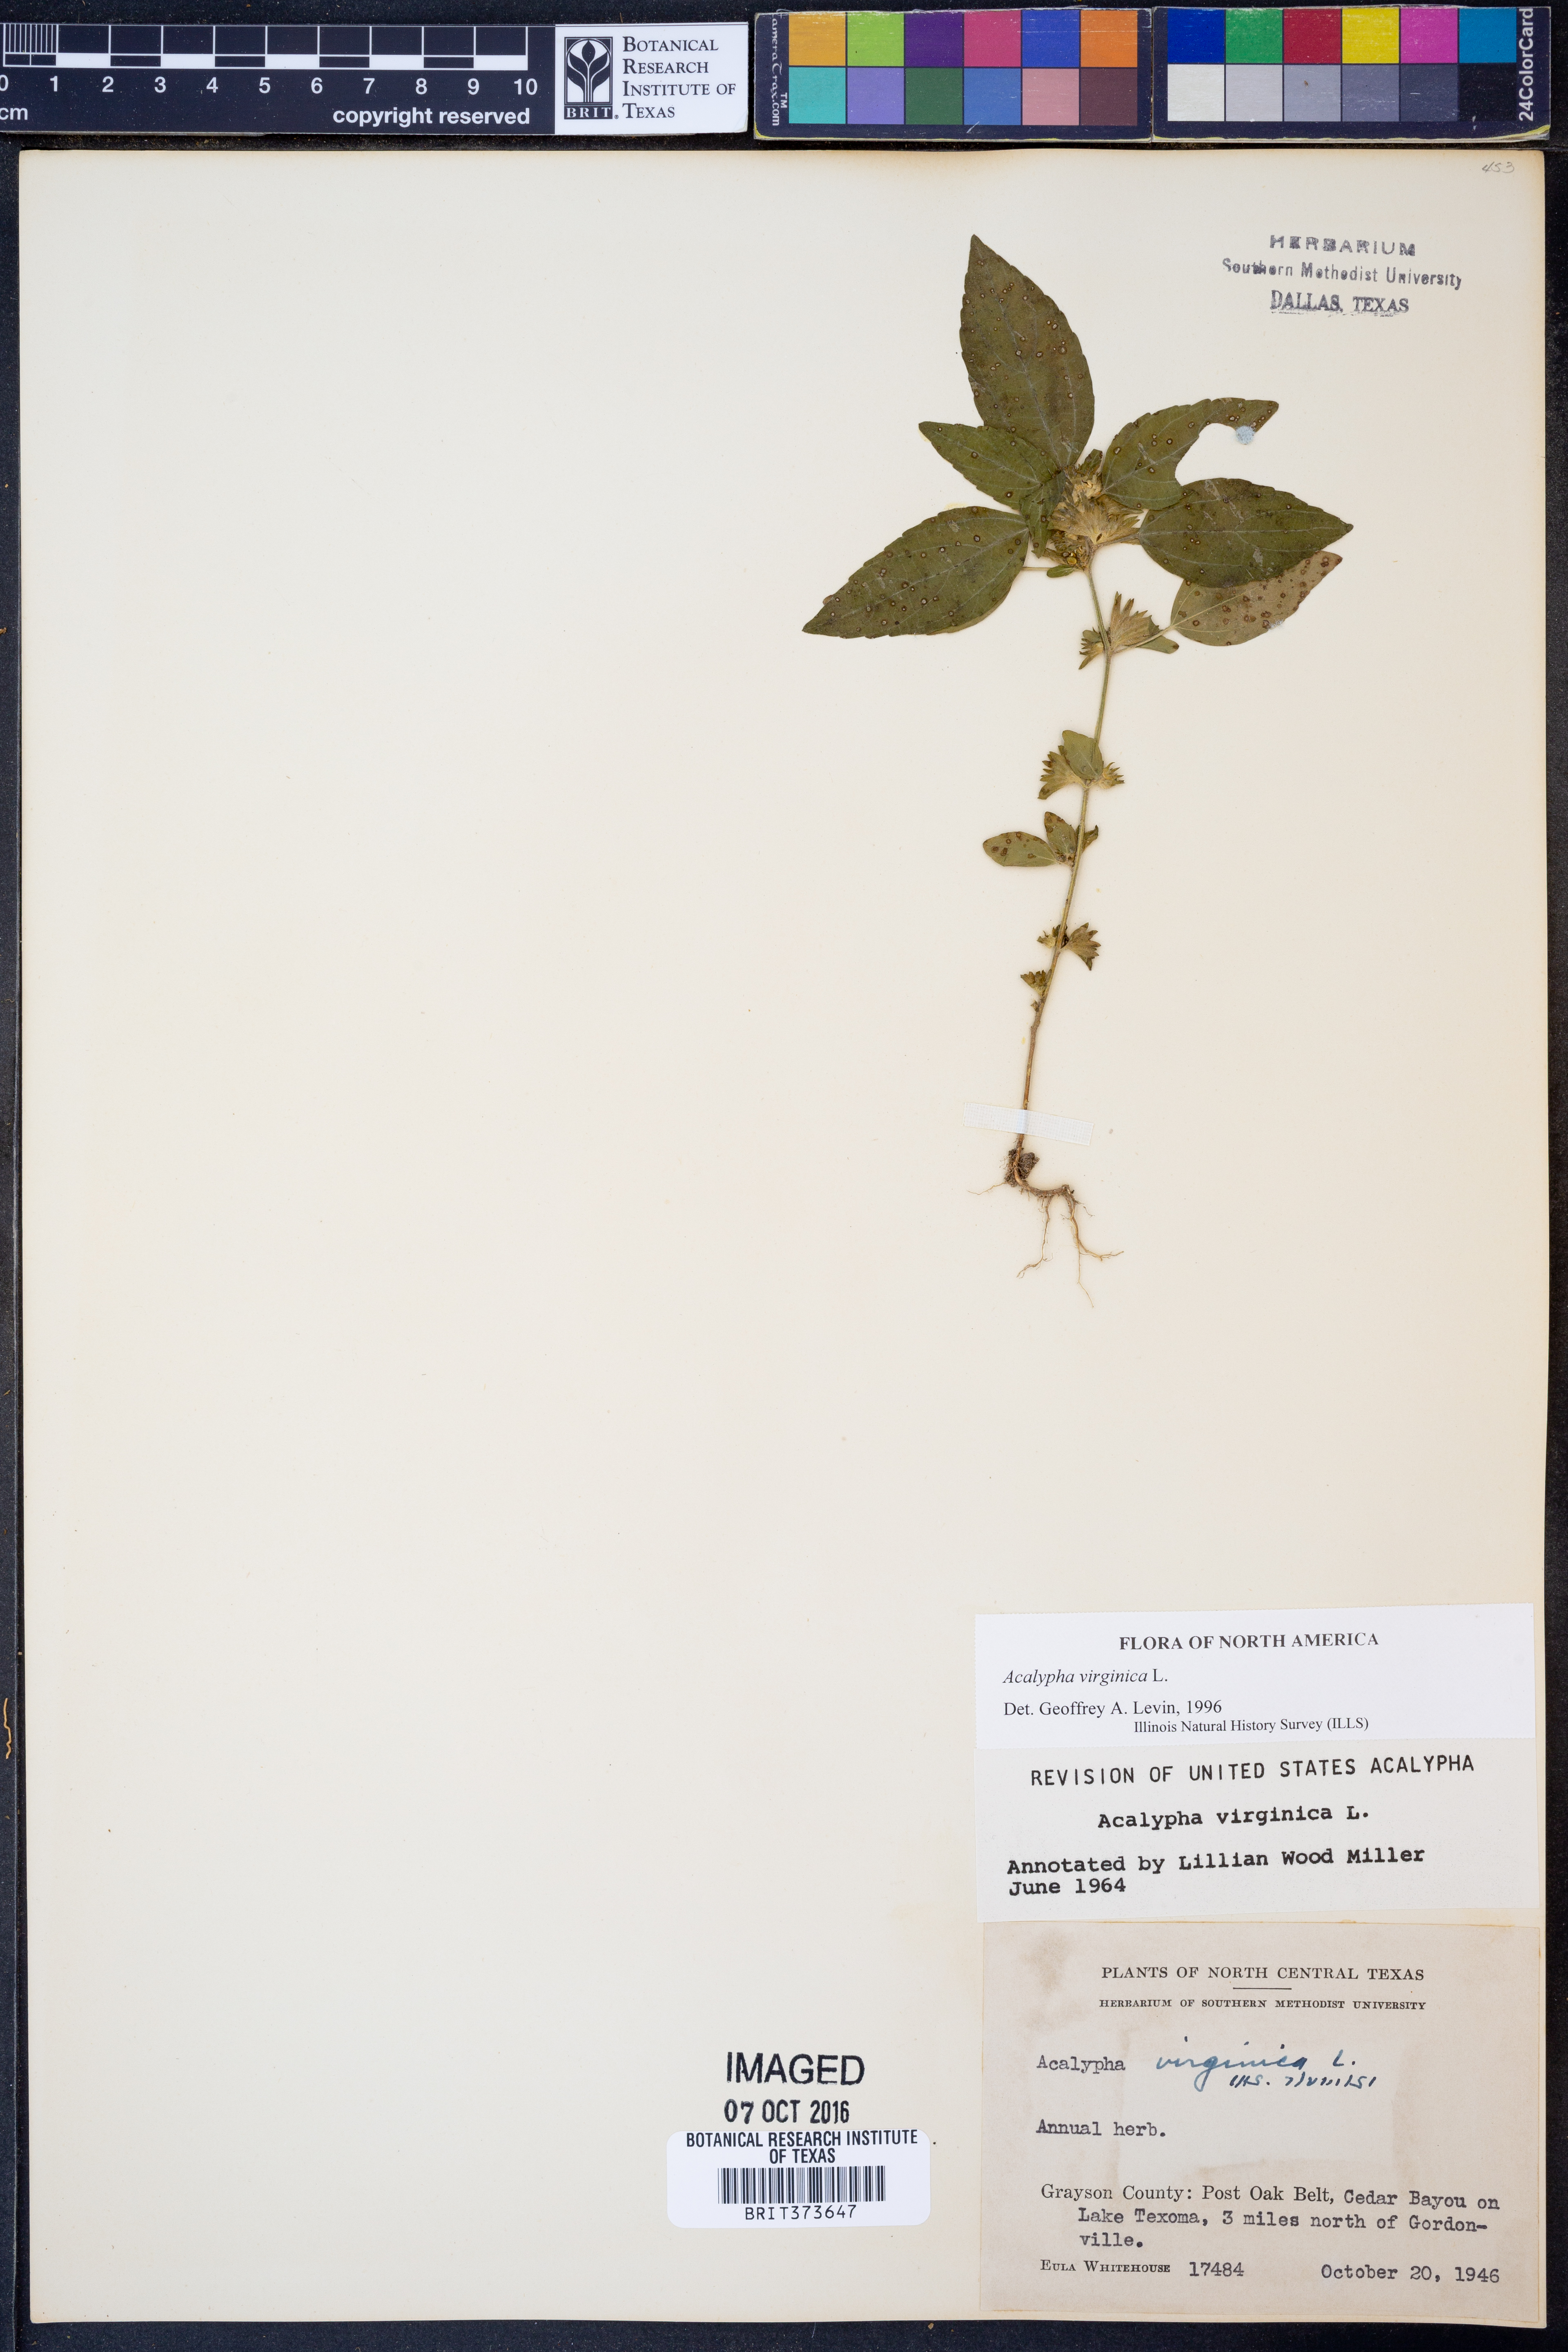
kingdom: Plantae
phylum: Tracheophyta
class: Magnoliopsida
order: Malpighiales
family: Euphorbiaceae
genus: Acalypha
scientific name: Acalypha virginica
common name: Virginia copperleaf
